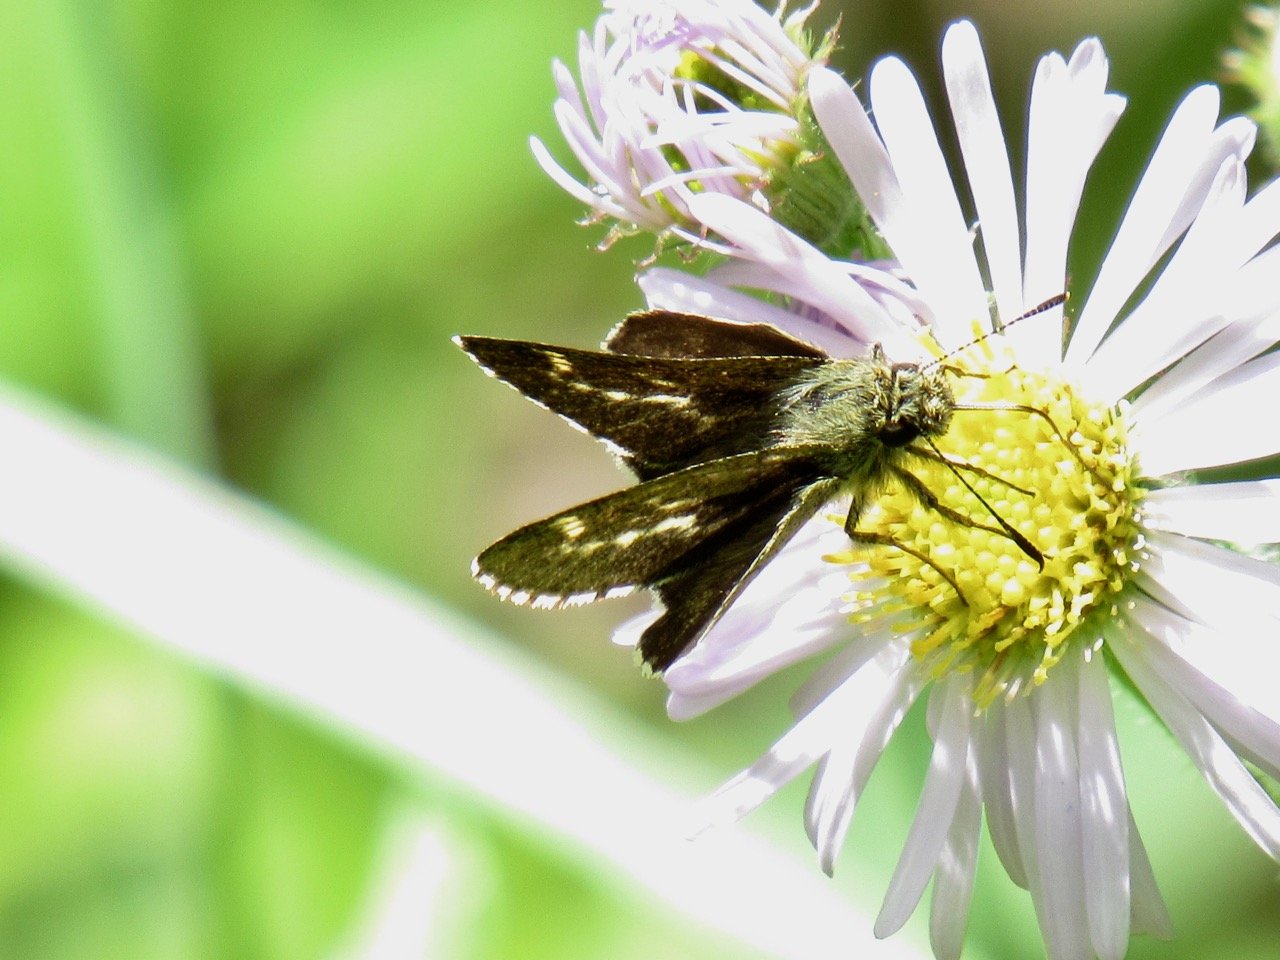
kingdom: Animalia
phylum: Arthropoda
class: Insecta
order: Lepidoptera
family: Hesperiidae
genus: Mastor
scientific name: Mastor hegon
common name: Pepper and Salt Skipper
